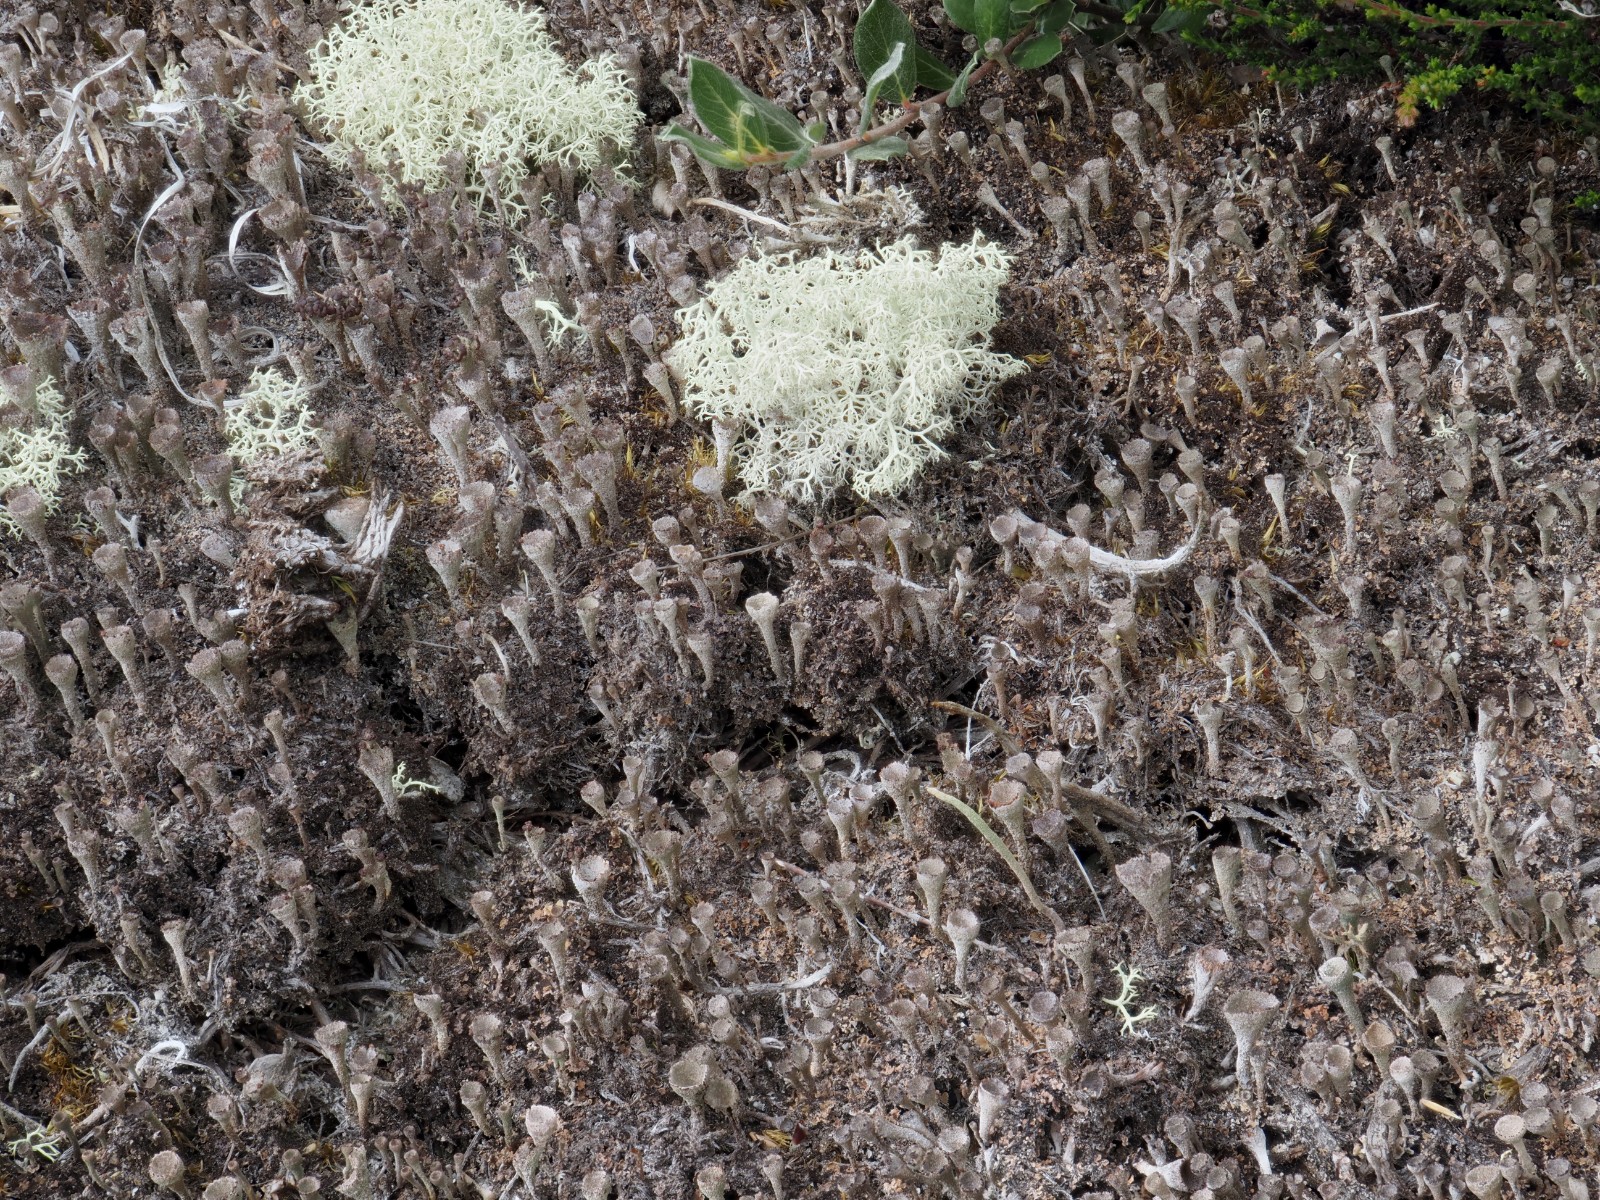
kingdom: Fungi
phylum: Ascomycota
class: Lecanoromycetes
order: Lecanorales
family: Cladoniaceae
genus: Cladonia
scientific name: Cladonia novochlorophaea
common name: sortbrun bægerlav
